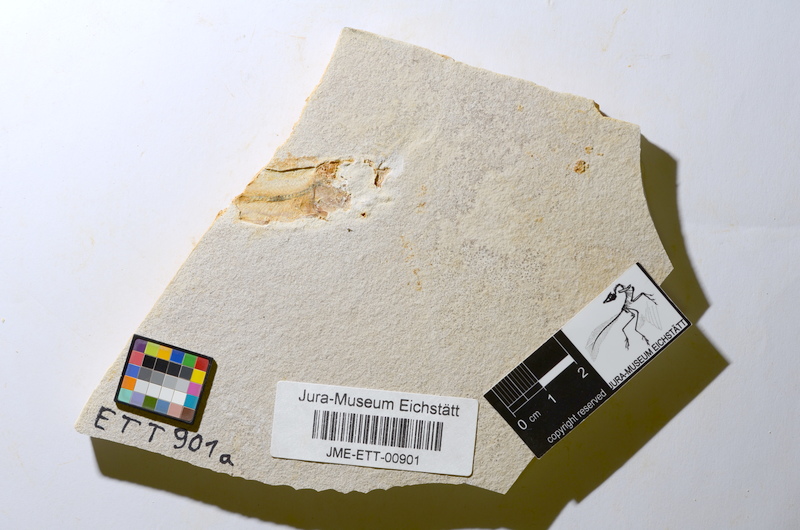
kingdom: Animalia
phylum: Chordata
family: Ascalaboidae
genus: Ebertichthys
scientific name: Ebertichthys ettlingensis
